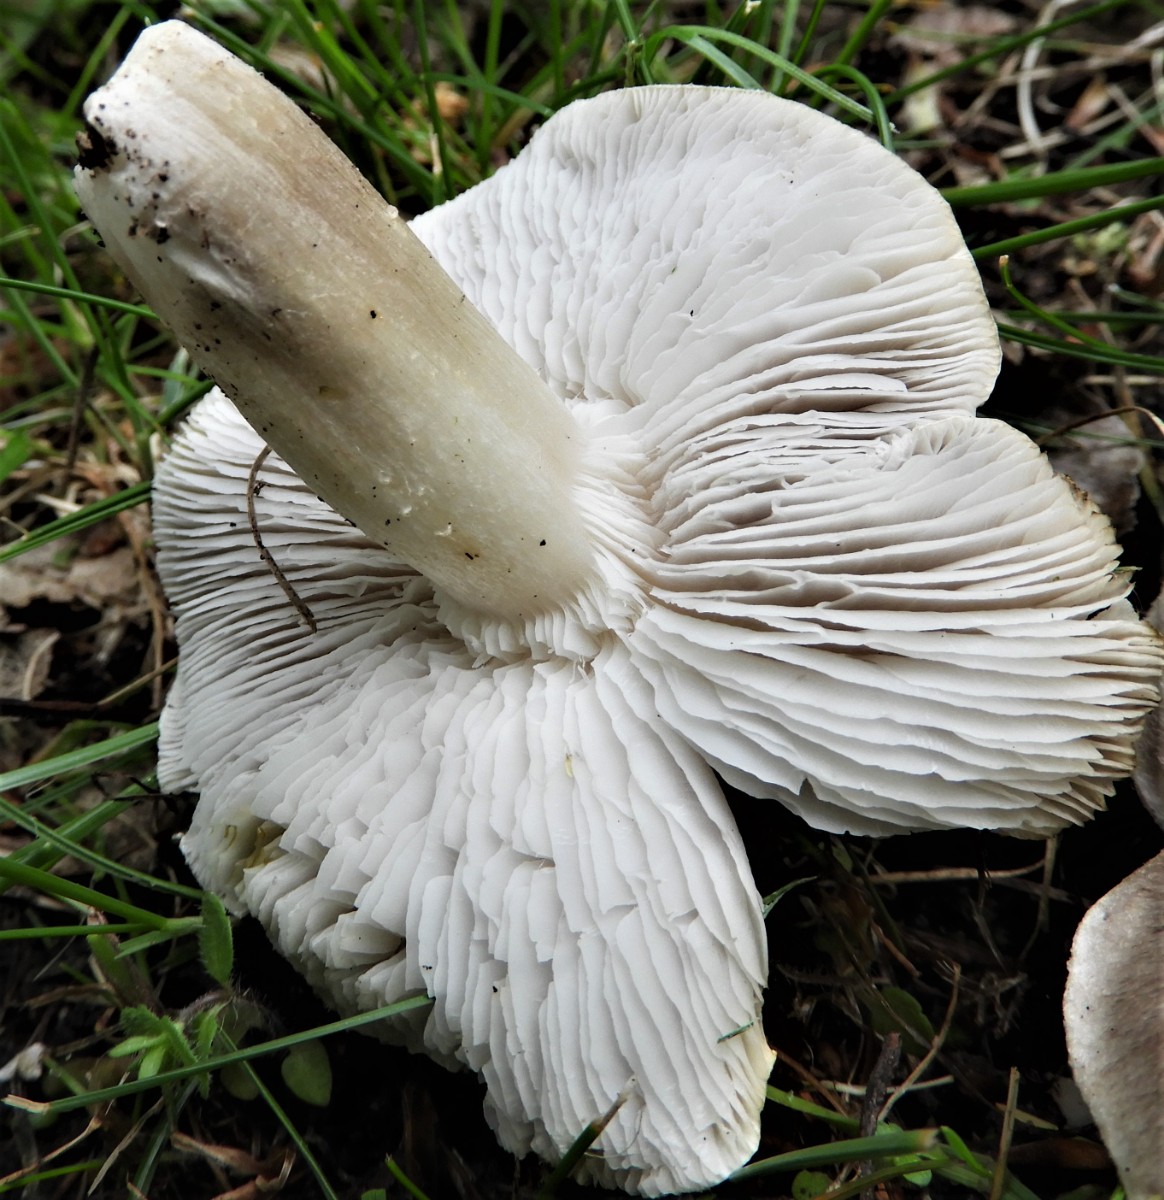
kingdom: Fungi
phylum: Basidiomycota
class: Agaricomycetes
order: Agaricales
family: Tricholomataceae
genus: Tricholoma
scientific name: Tricholoma scalpturatum
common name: gulplettet ridderhat
